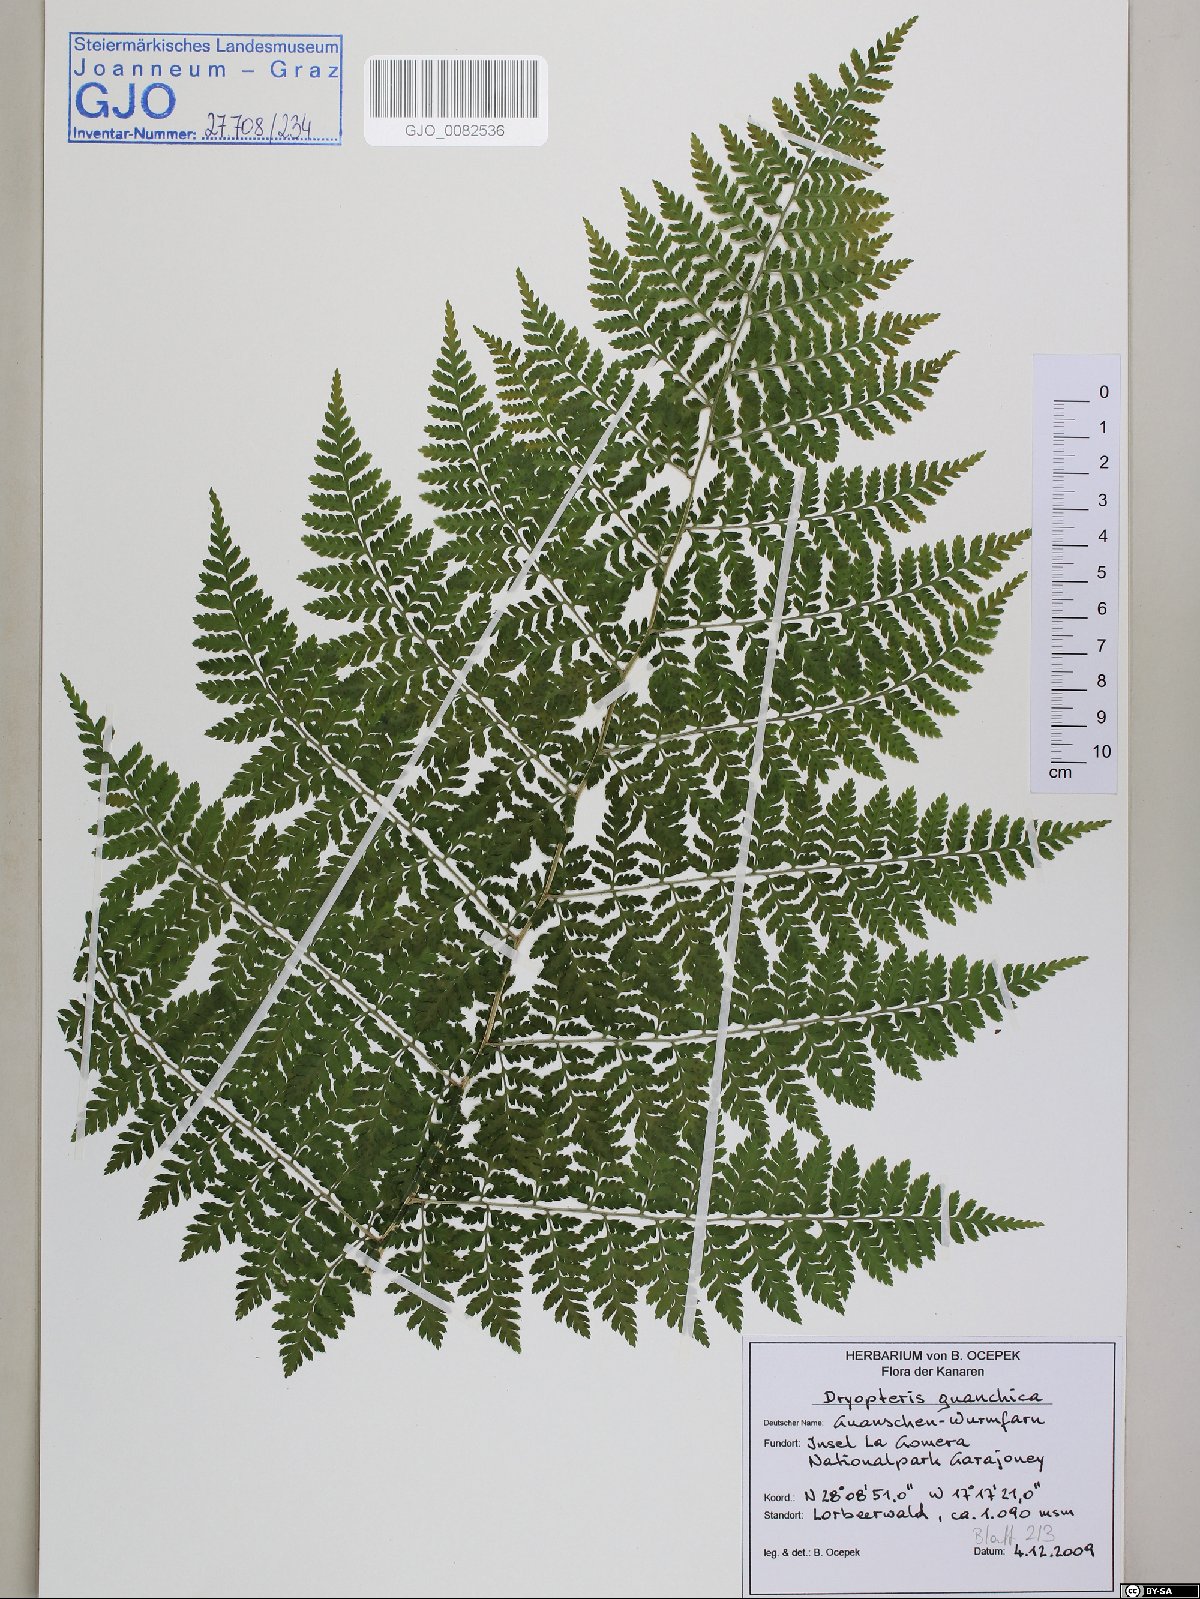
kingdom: Plantae
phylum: Tracheophyta
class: Polypodiopsida
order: Polypodiales
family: Dryopteridaceae
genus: Dryopteris
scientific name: Dryopteris guanchica
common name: Guanche woodfern
